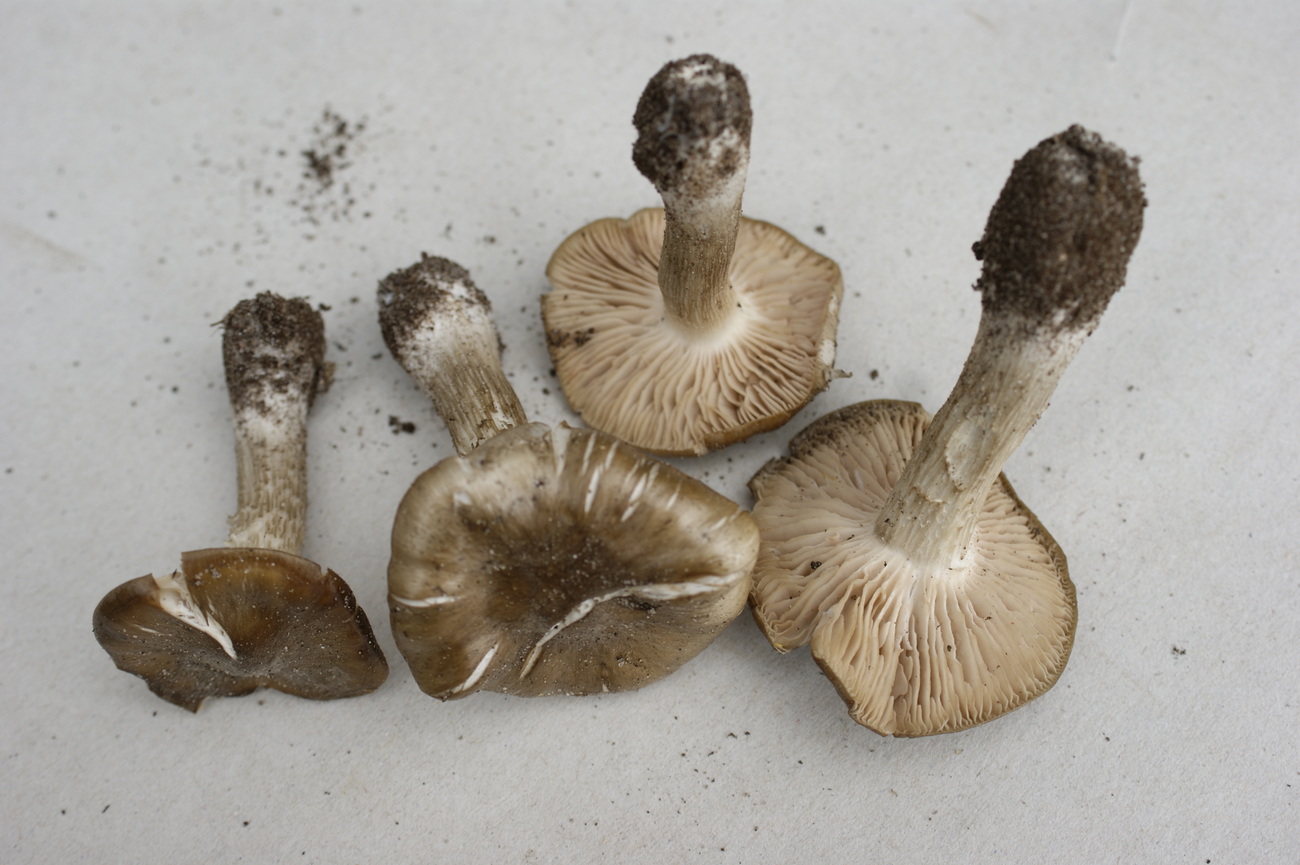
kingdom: Fungi
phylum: Basidiomycota
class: Agaricomycetes
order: Agaricales
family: Entolomataceae
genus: Entoloma
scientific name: Entoloma clypeatum
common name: flammet rødblad
